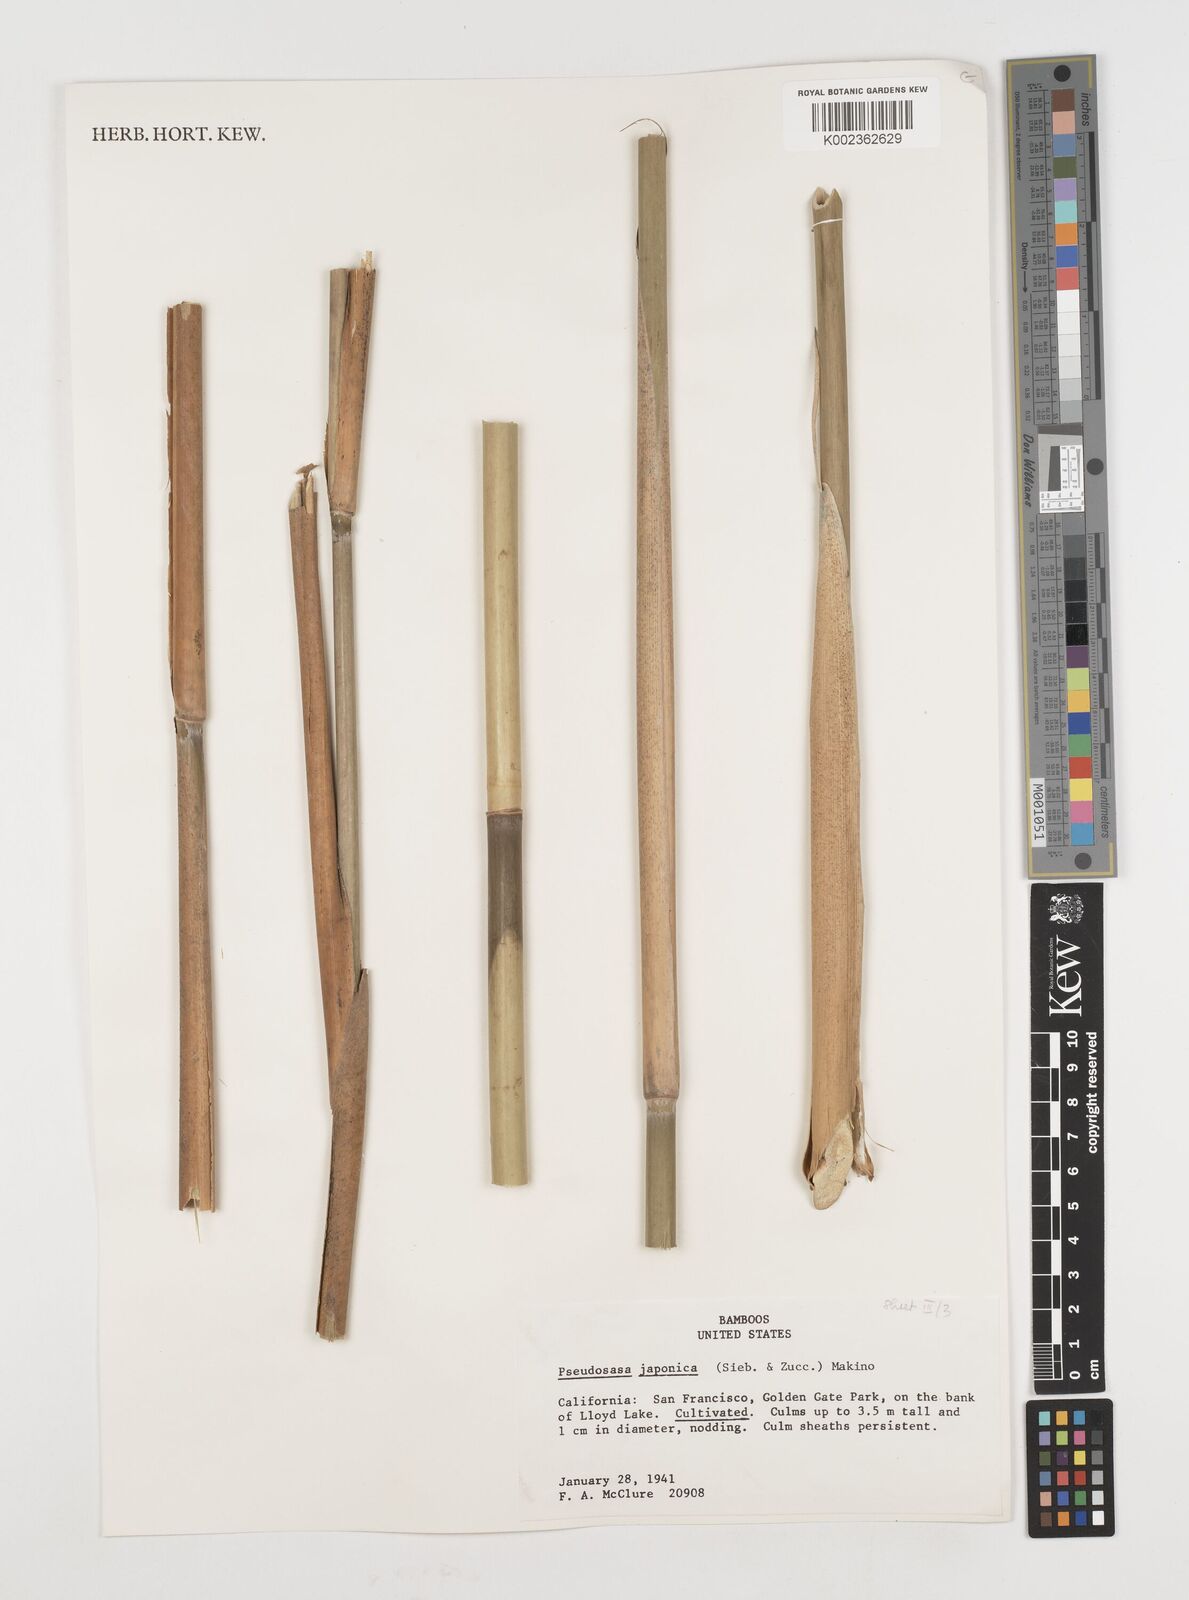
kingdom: Plantae
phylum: Tracheophyta
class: Liliopsida
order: Poales
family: Poaceae
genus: Pseudosasa
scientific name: Pseudosasa japonica
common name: Arrow bamboo
